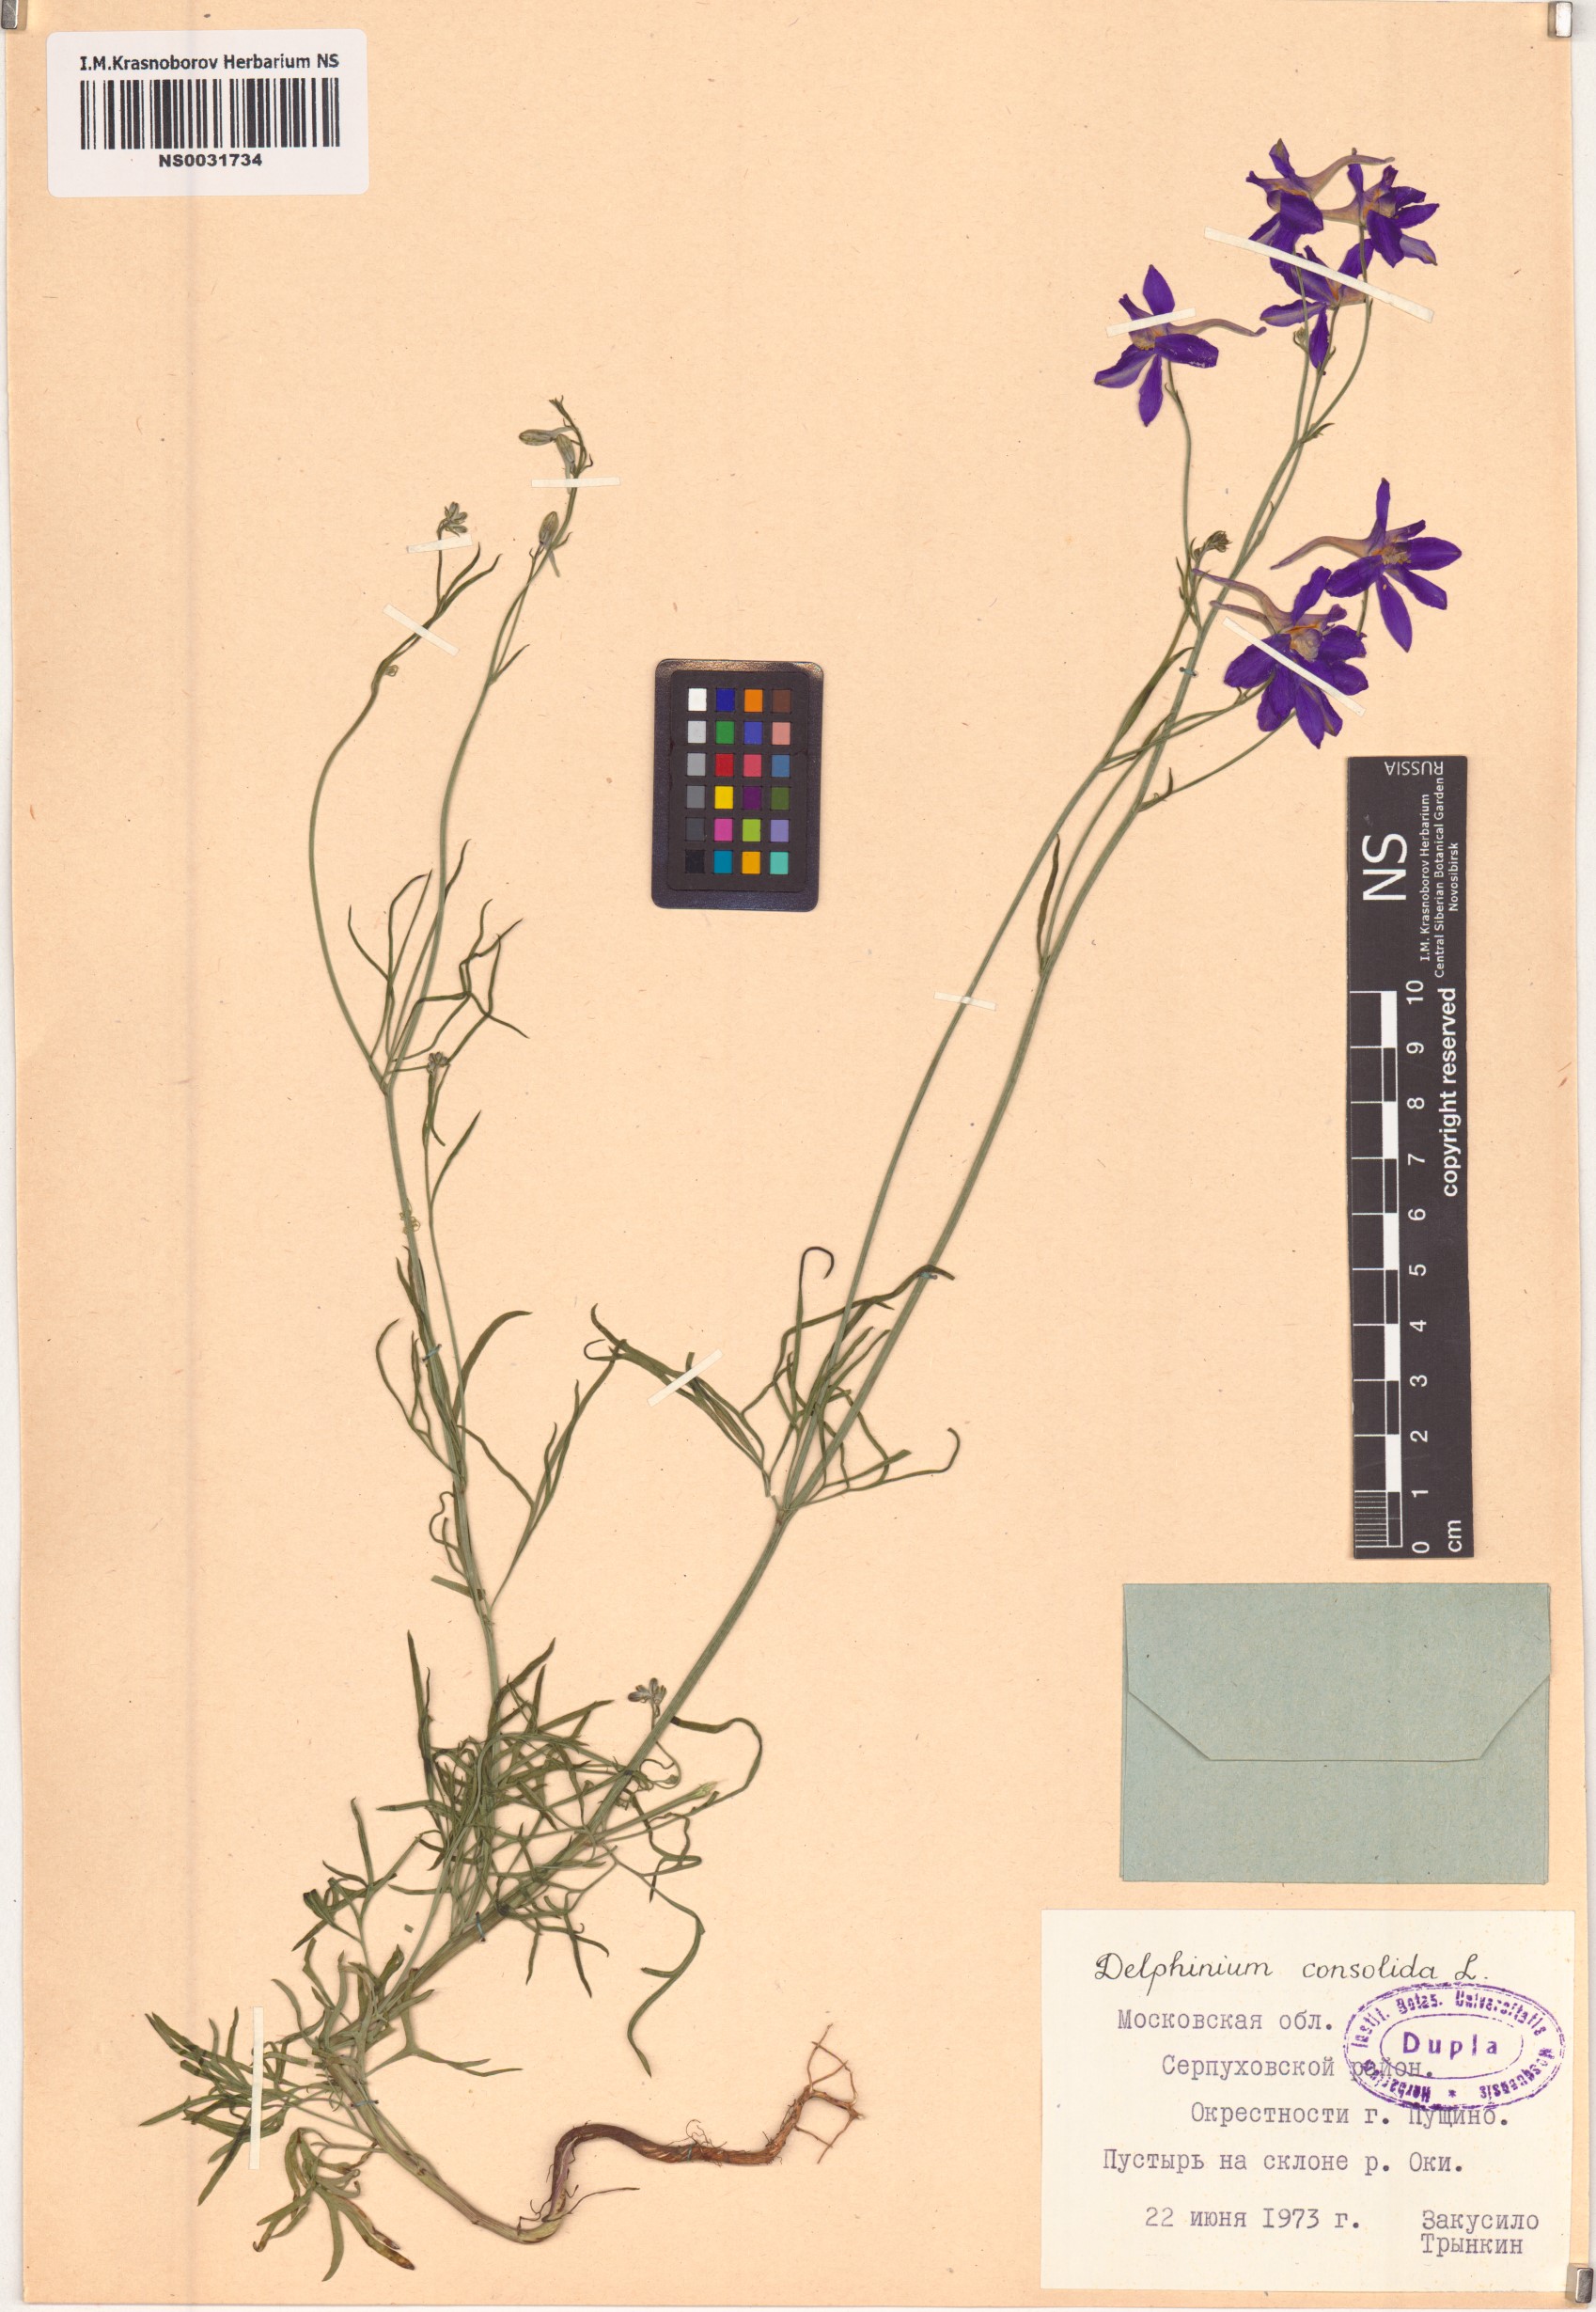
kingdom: Plantae
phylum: Tracheophyta
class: Magnoliopsida
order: Ranunculales
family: Ranunculaceae
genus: Delphinium
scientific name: Delphinium consolida
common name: Branching larkspur
